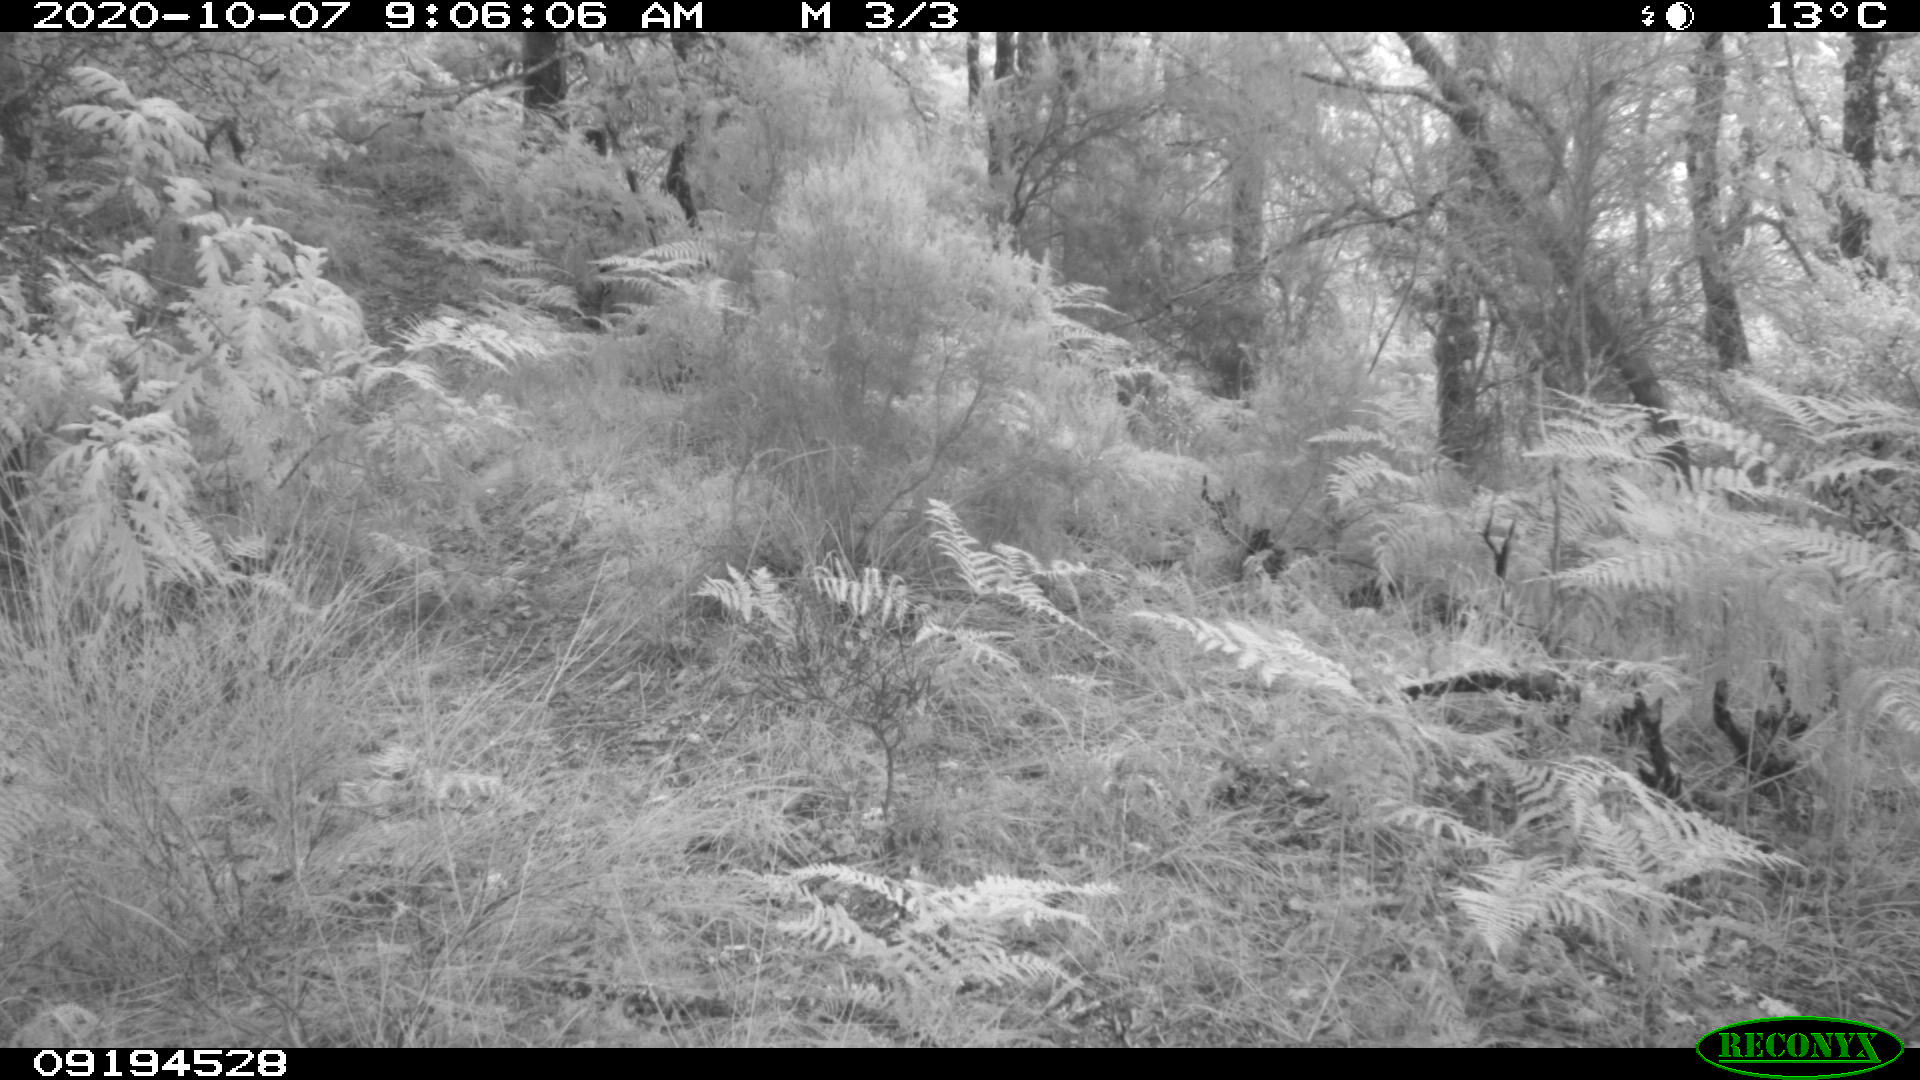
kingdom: Animalia
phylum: Chordata
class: Mammalia
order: Artiodactyla
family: Cervidae
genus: Capreolus
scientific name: Capreolus capreolus
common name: Western roe deer
